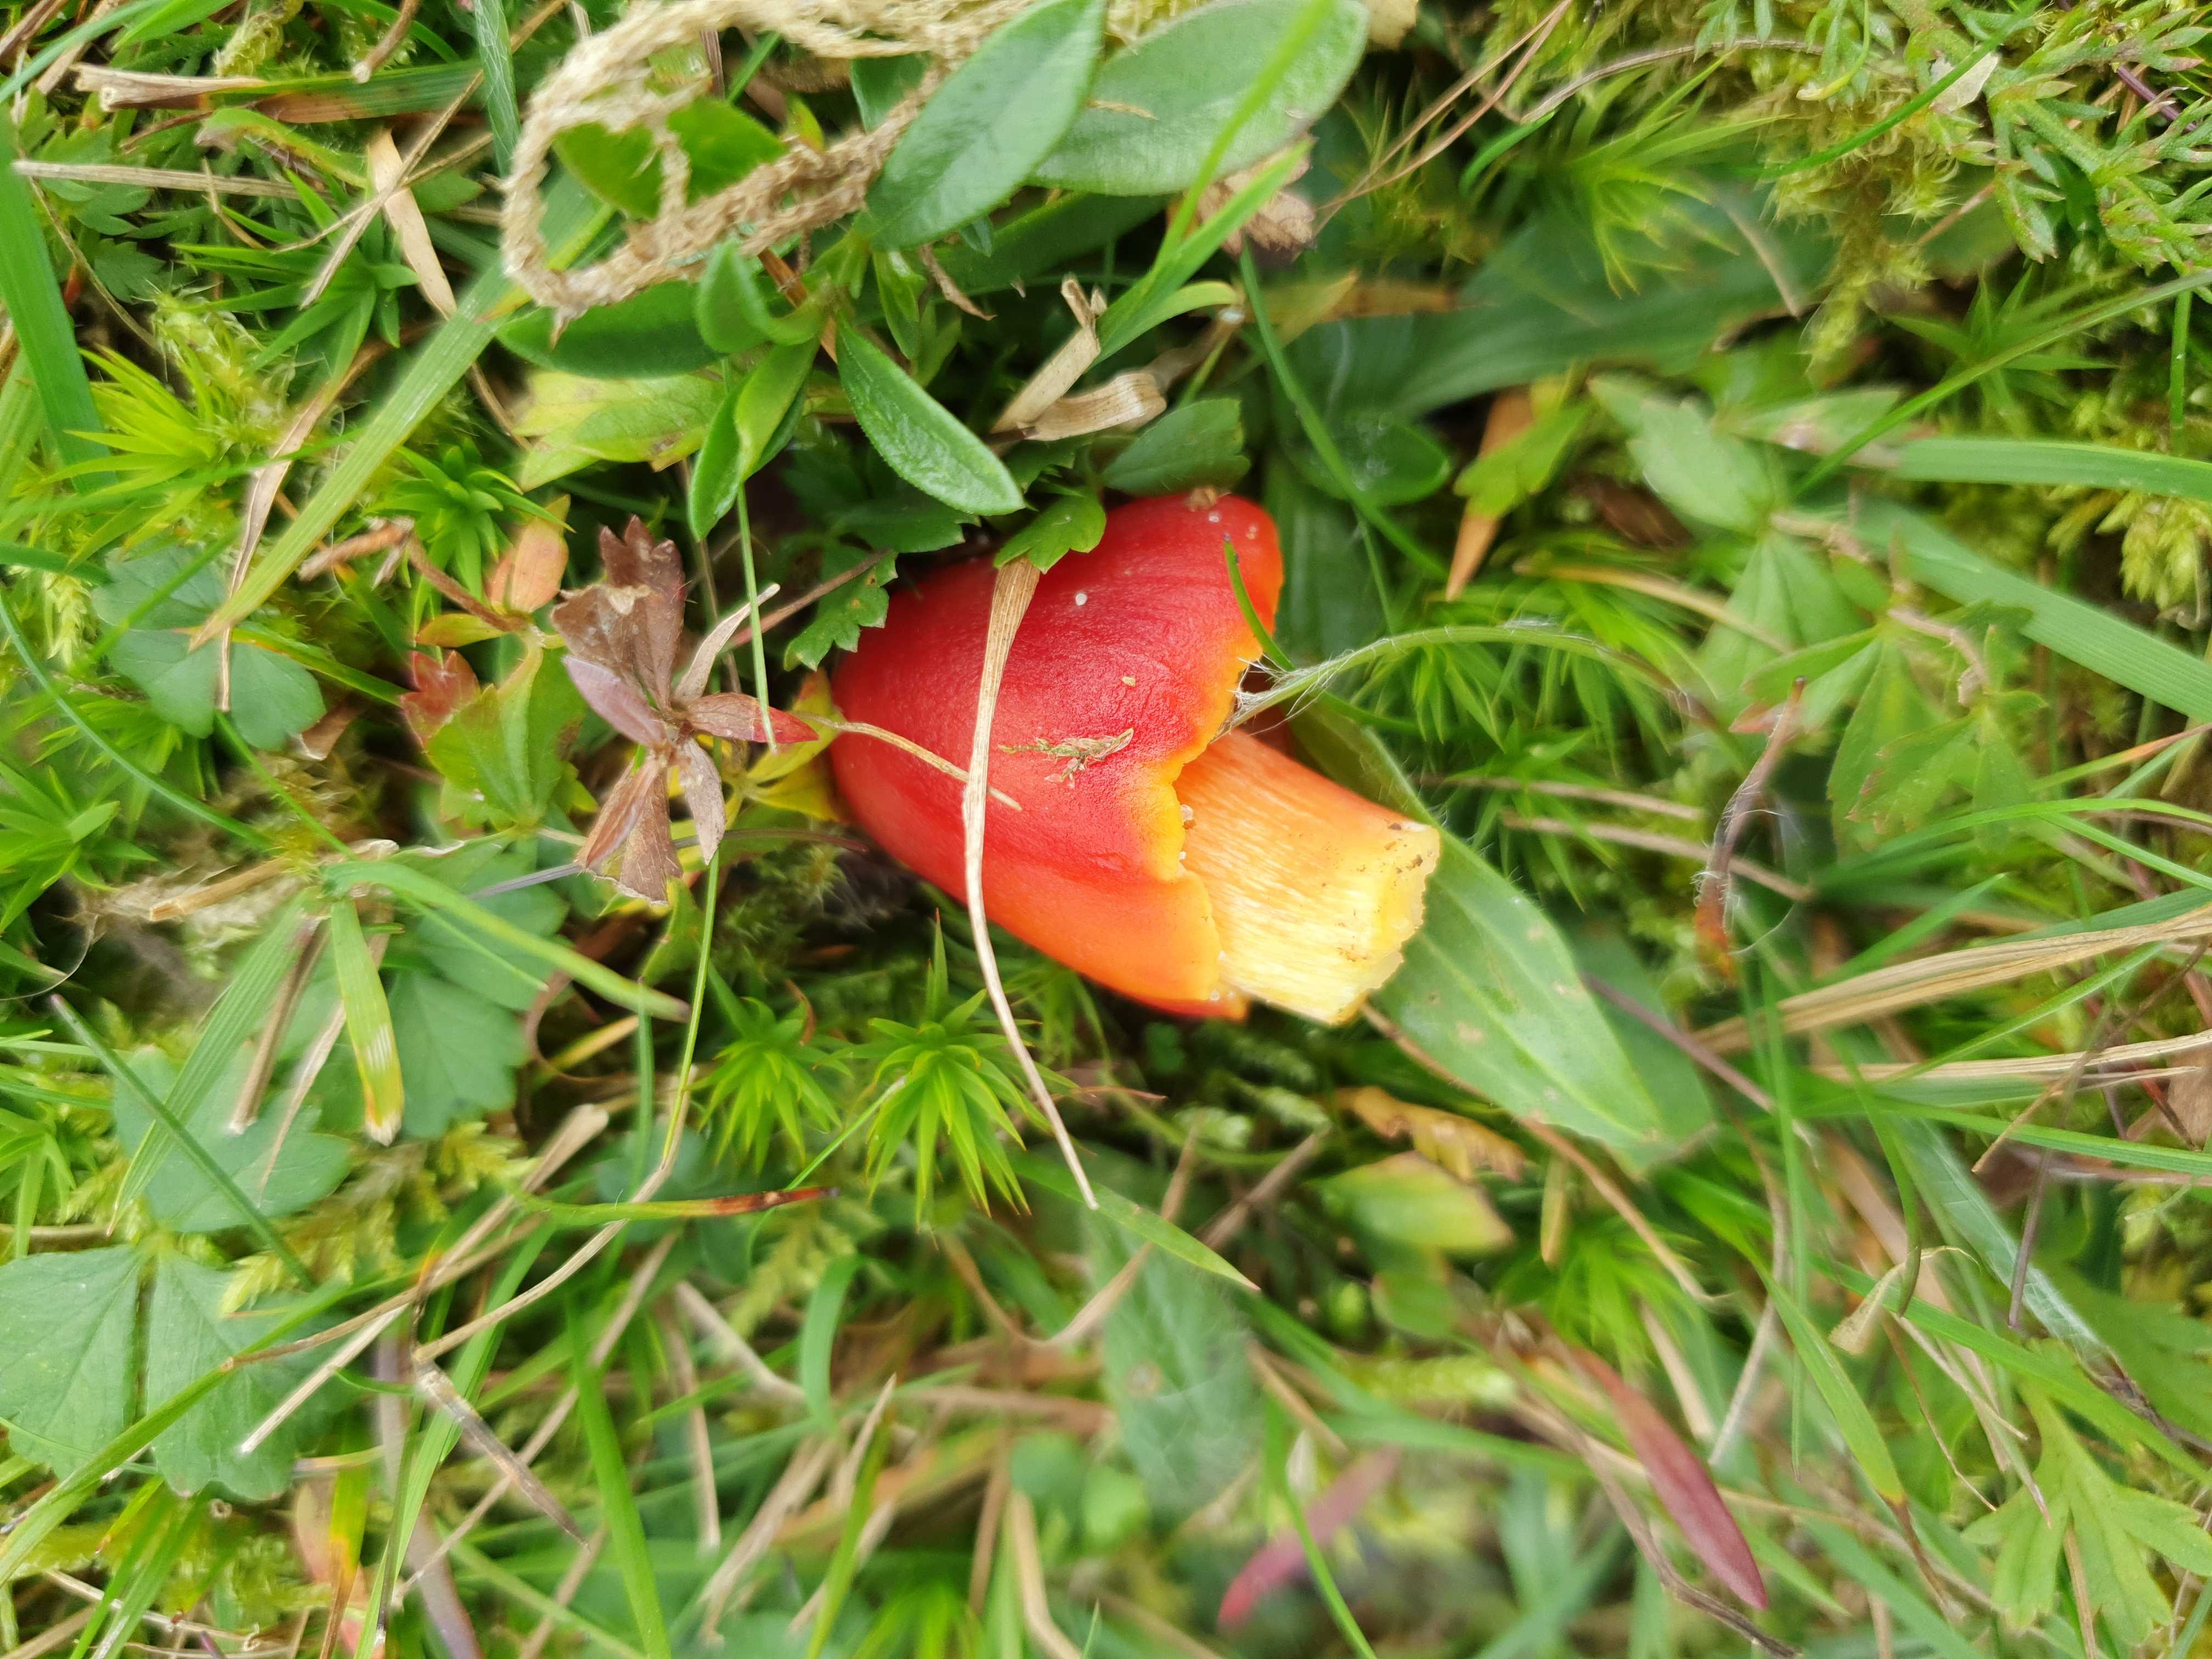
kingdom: Fungi
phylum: Basidiomycota
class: Agaricomycetes
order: Agaricales
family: Hygrophoraceae
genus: Hygrocybe
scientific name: Hygrocybe punicea
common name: skarlagen-vokshat
